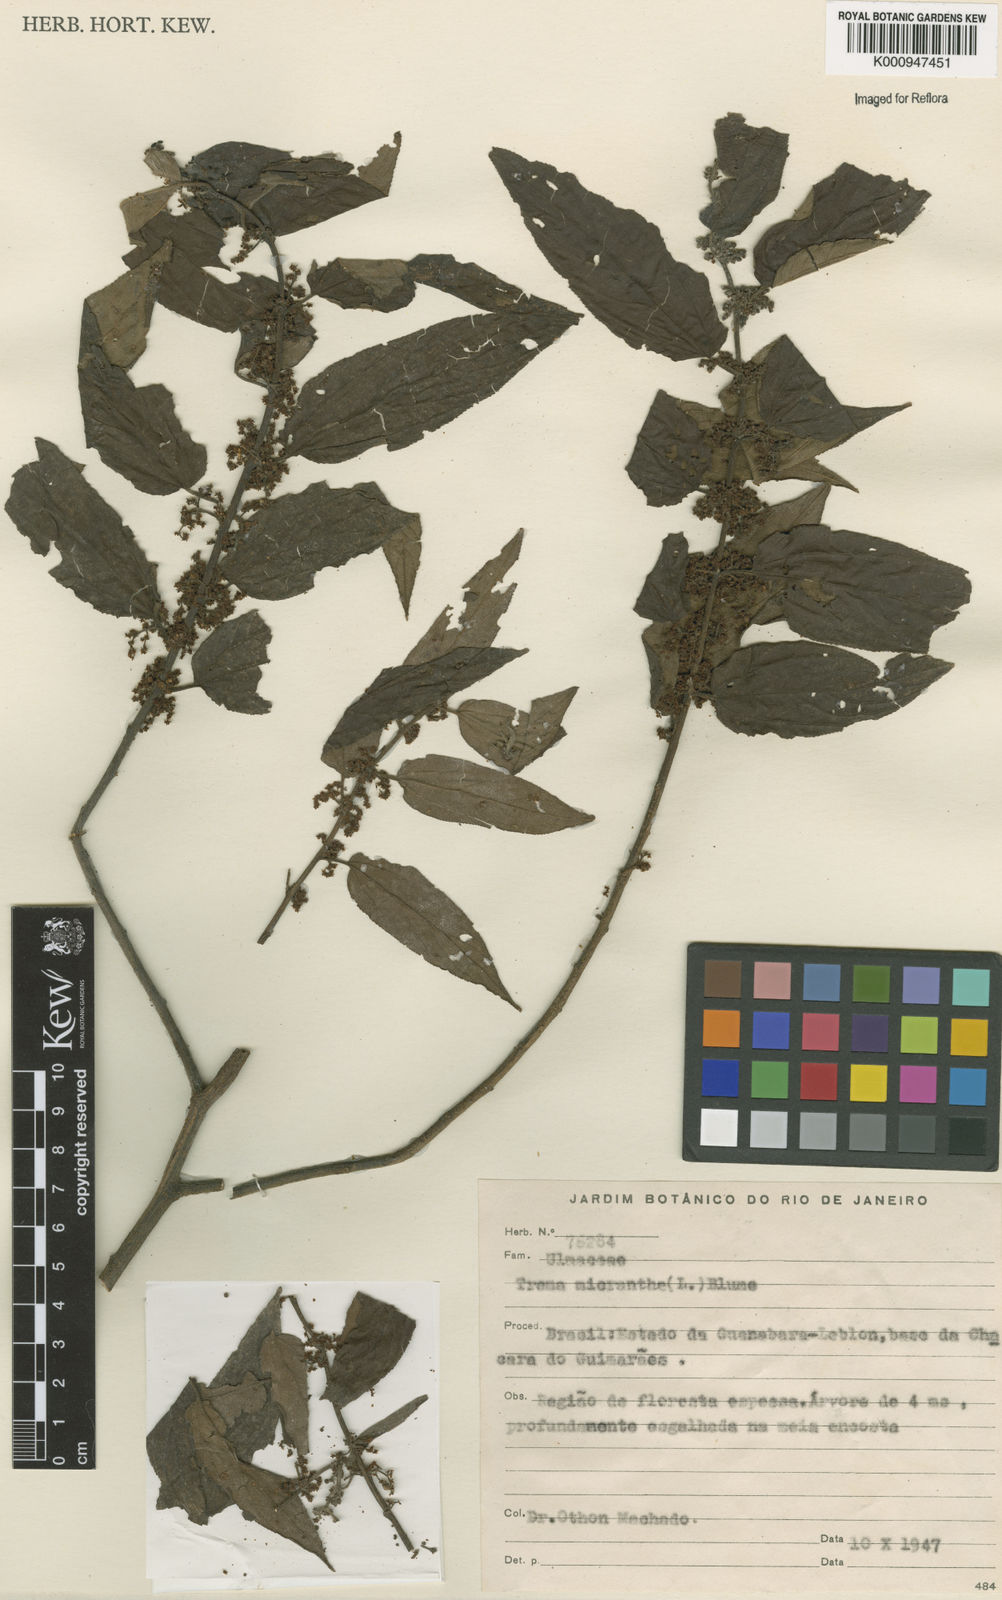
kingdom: Plantae
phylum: Tracheophyta
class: Magnoliopsida
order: Rosales
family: Cannabaceae
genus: Trema
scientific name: Trema micranthum
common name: Jamaican nettletree
